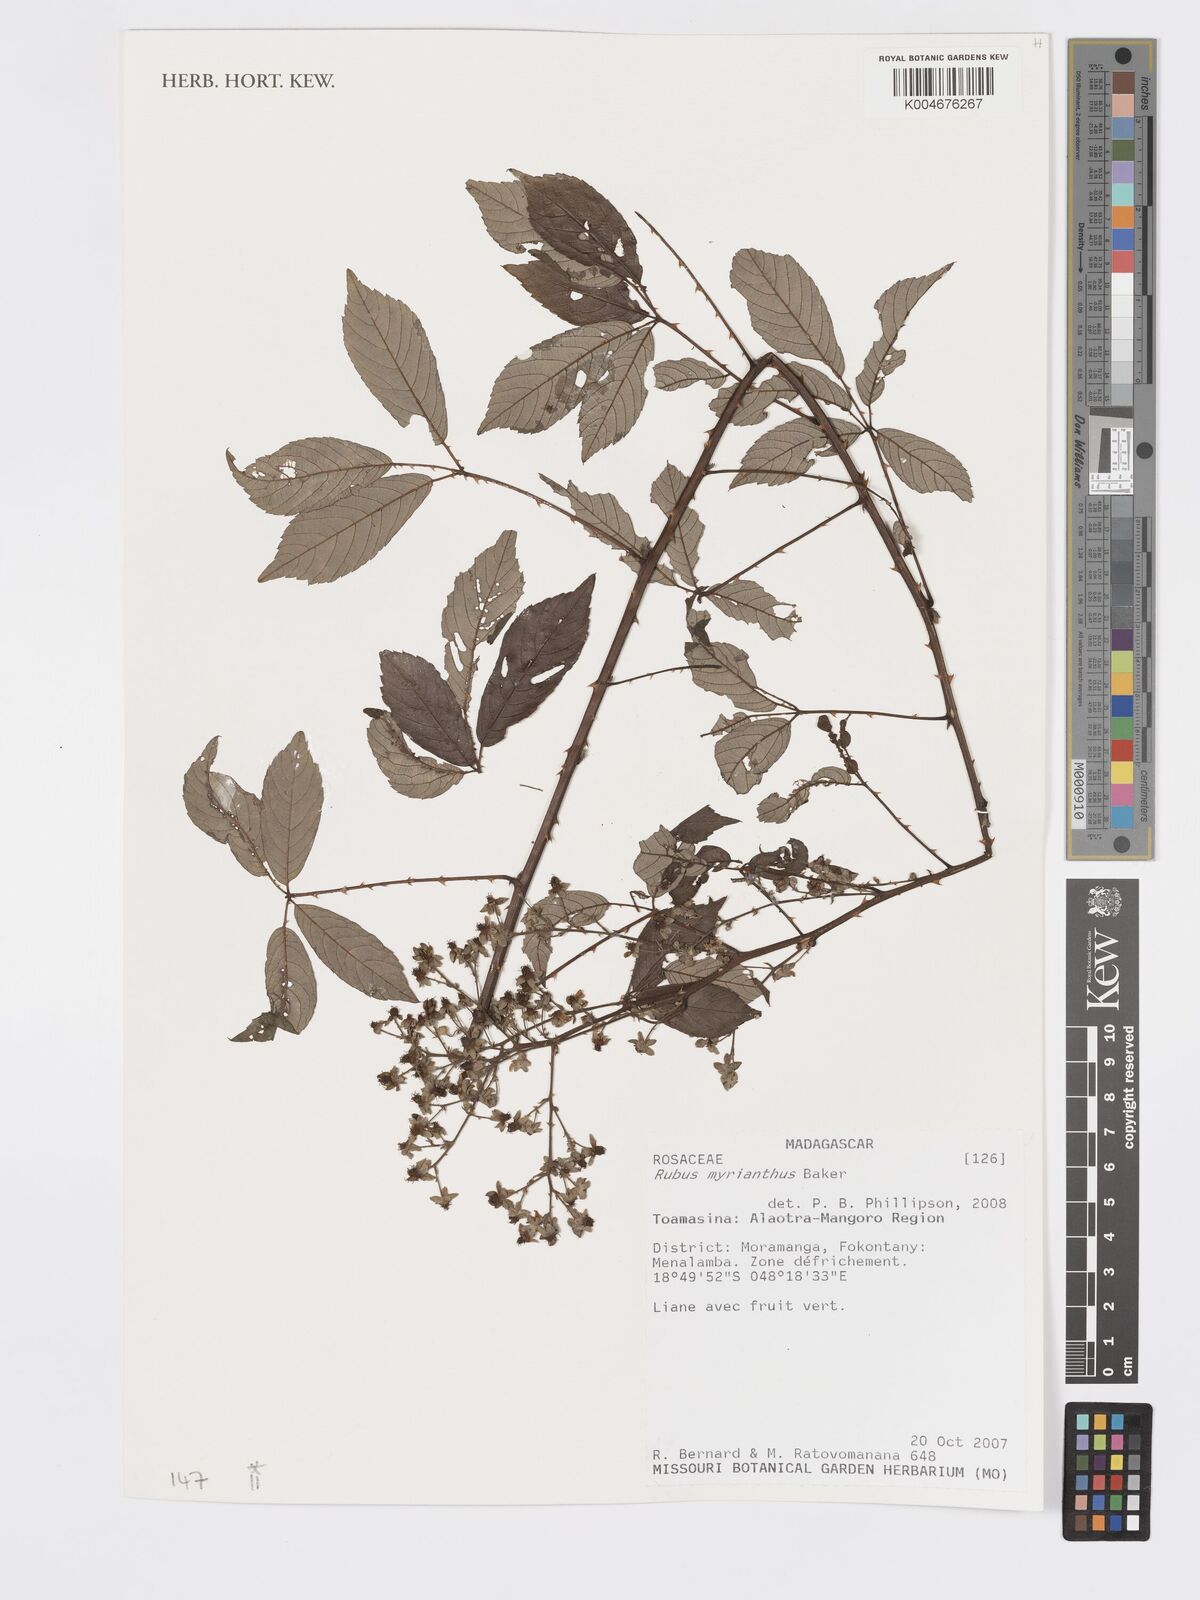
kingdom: Plantae
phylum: Tracheophyta
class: Magnoliopsida
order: Rosales
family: Rosaceae
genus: Rubus
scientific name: Rubus
